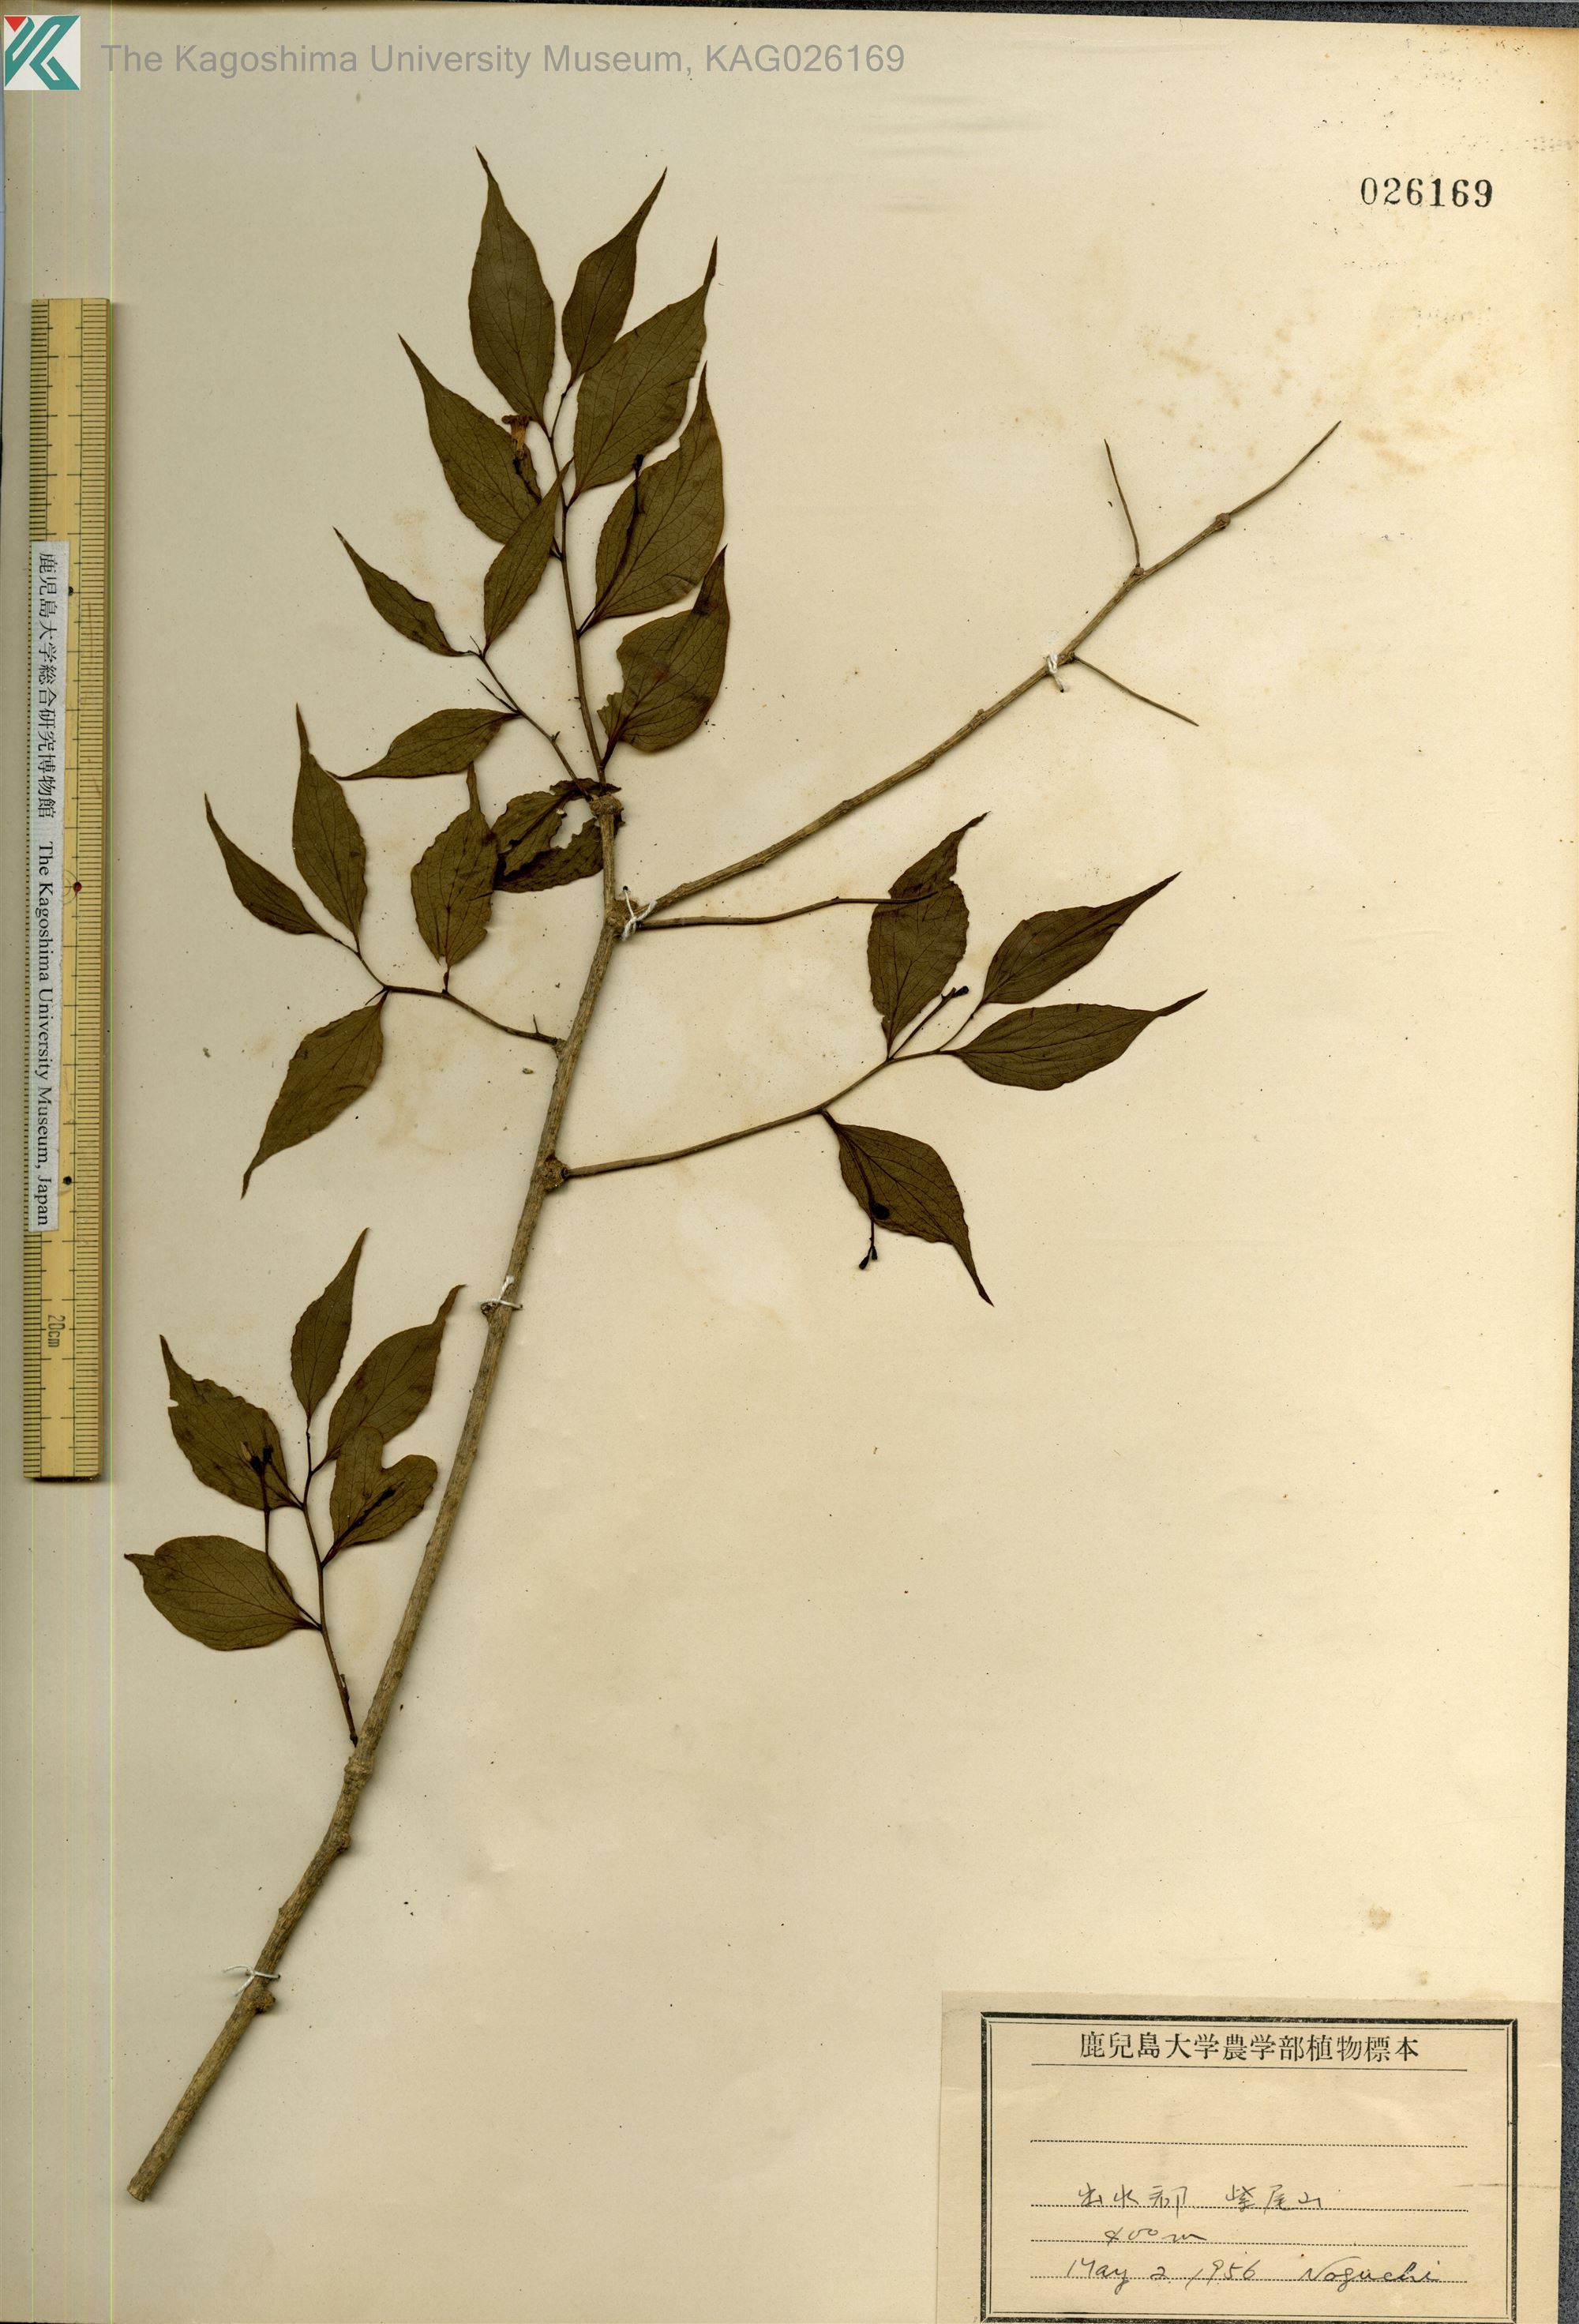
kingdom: Plantae
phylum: Tracheophyta
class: Magnoliopsida
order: Santalales
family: Schoepfiaceae
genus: Schoepfia
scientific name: Schoepfia jasminodora
